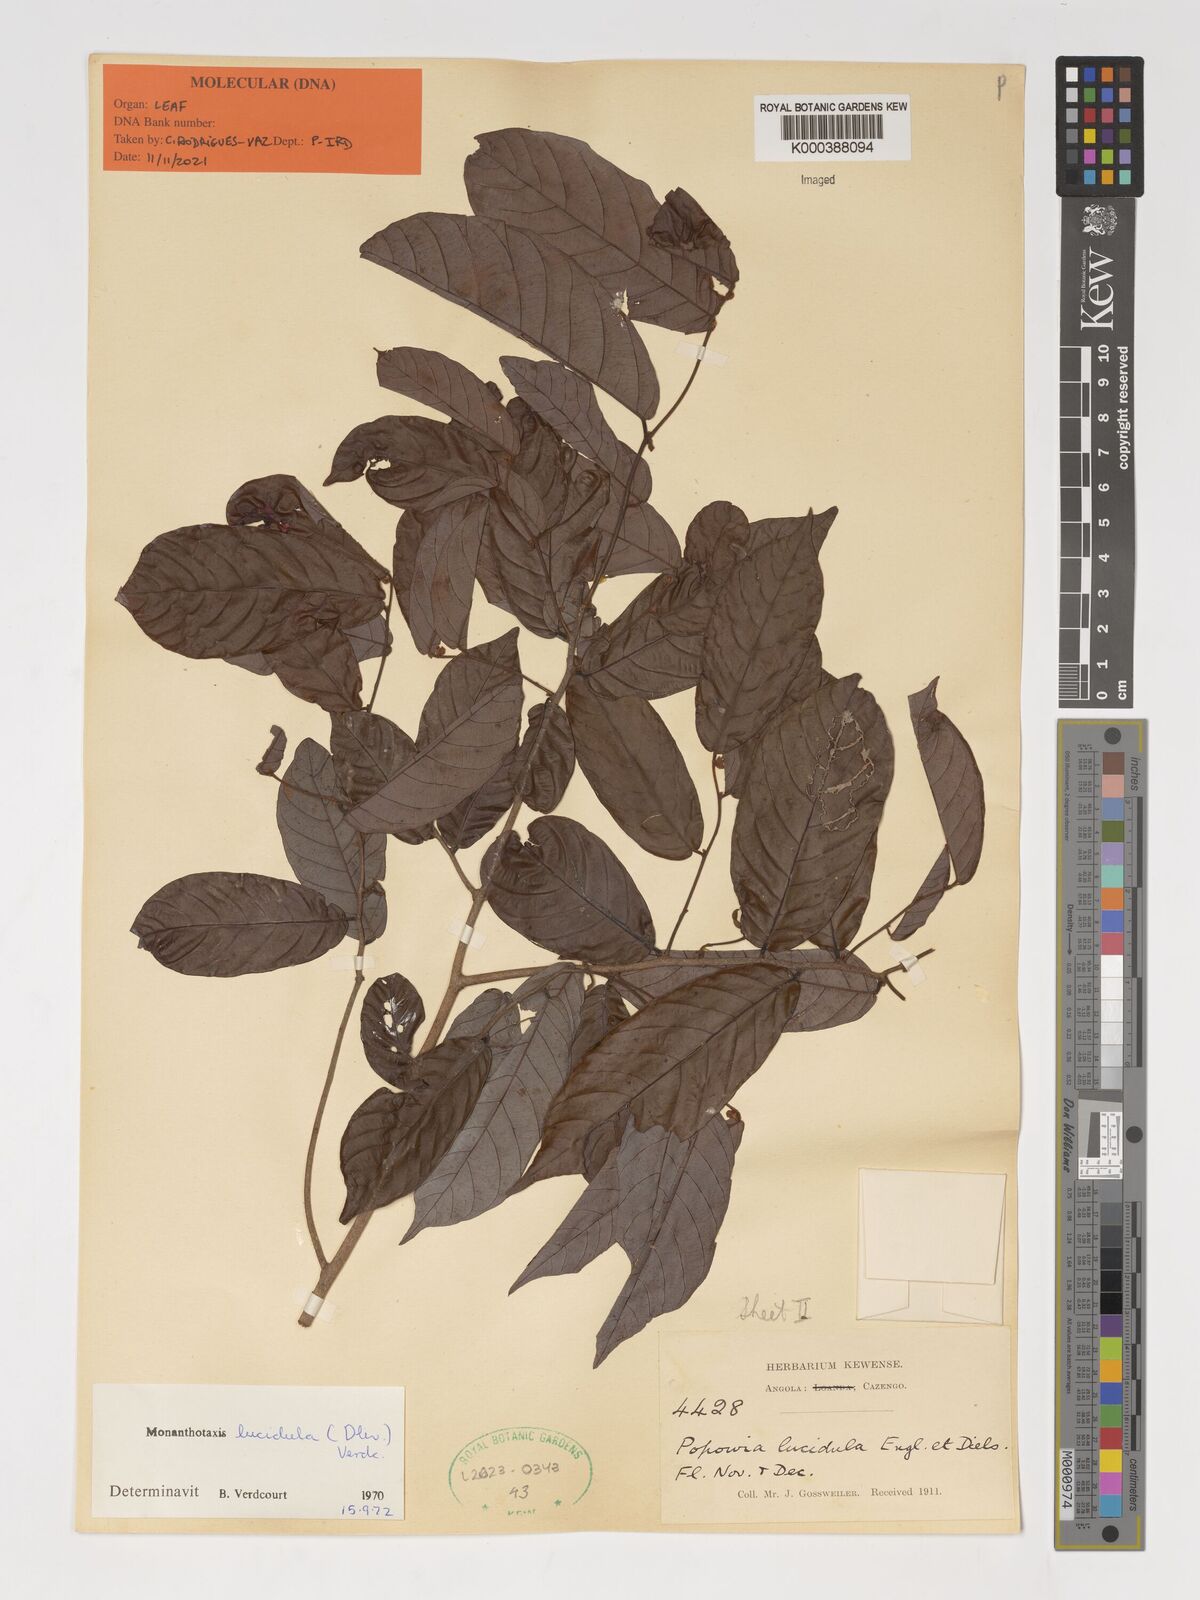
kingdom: Plantae
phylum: Tracheophyta
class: Magnoliopsida
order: Magnoliales
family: Annonaceae
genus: Monanthotaxis
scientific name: Monanthotaxis lucidula
